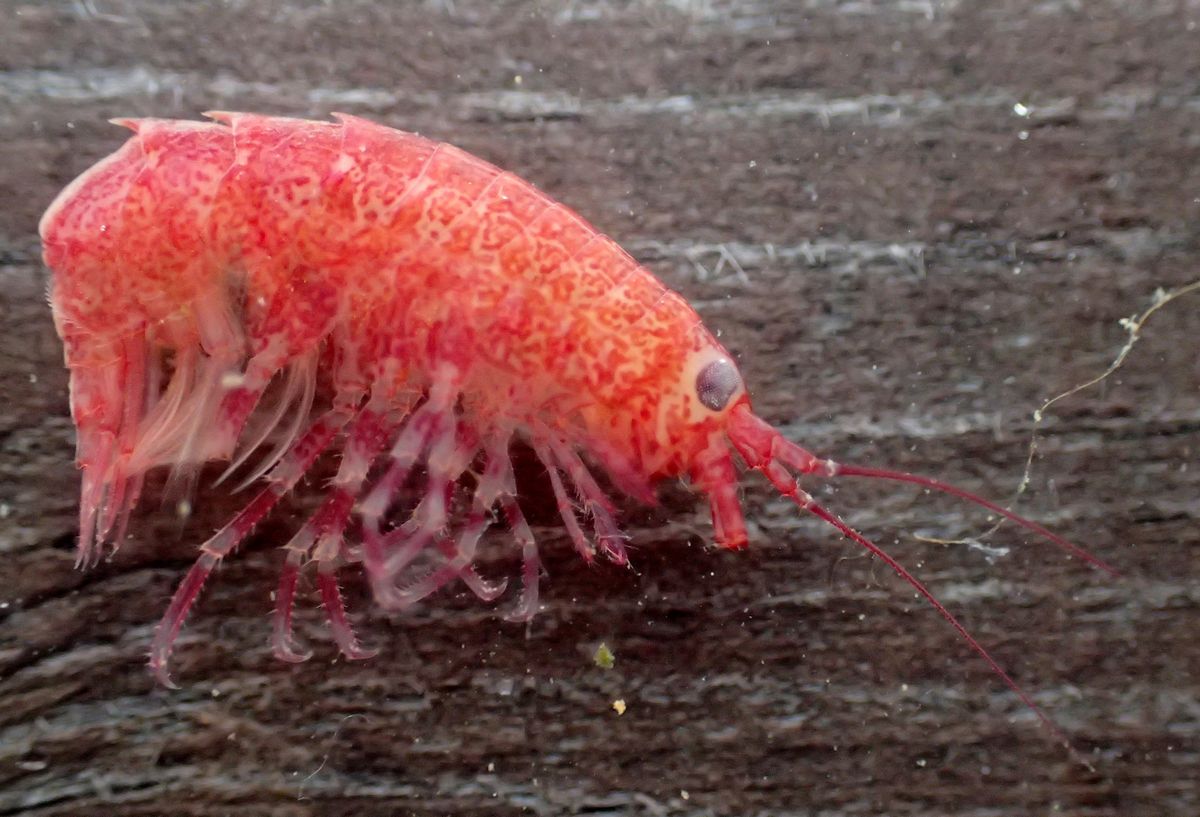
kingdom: Animalia
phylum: Arthropoda
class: Malacostraca
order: Amphipoda
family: Calliopiidae
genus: Apherusa
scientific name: Apherusa tridentata
